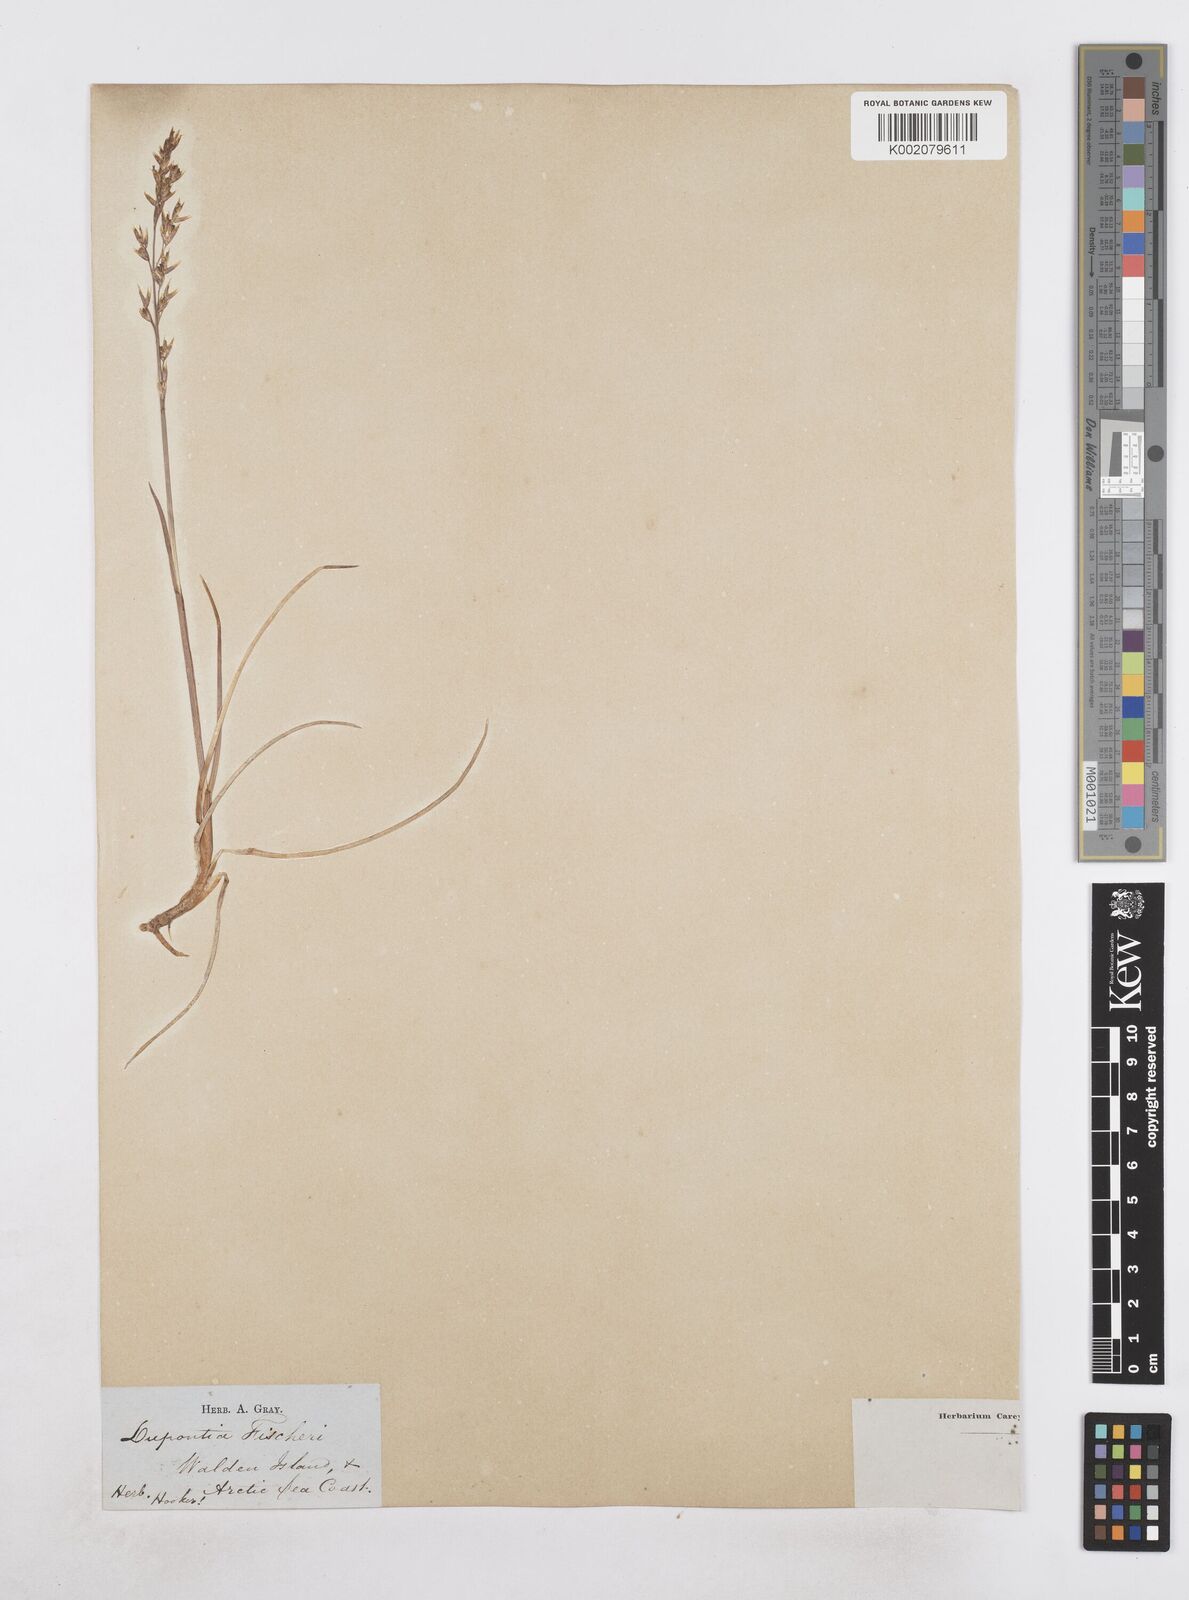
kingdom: Plantae
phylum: Tracheophyta
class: Liliopsida
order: Poales
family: Poaceae
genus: Dupontia
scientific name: Dupontia fisheri
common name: Tundra grass
